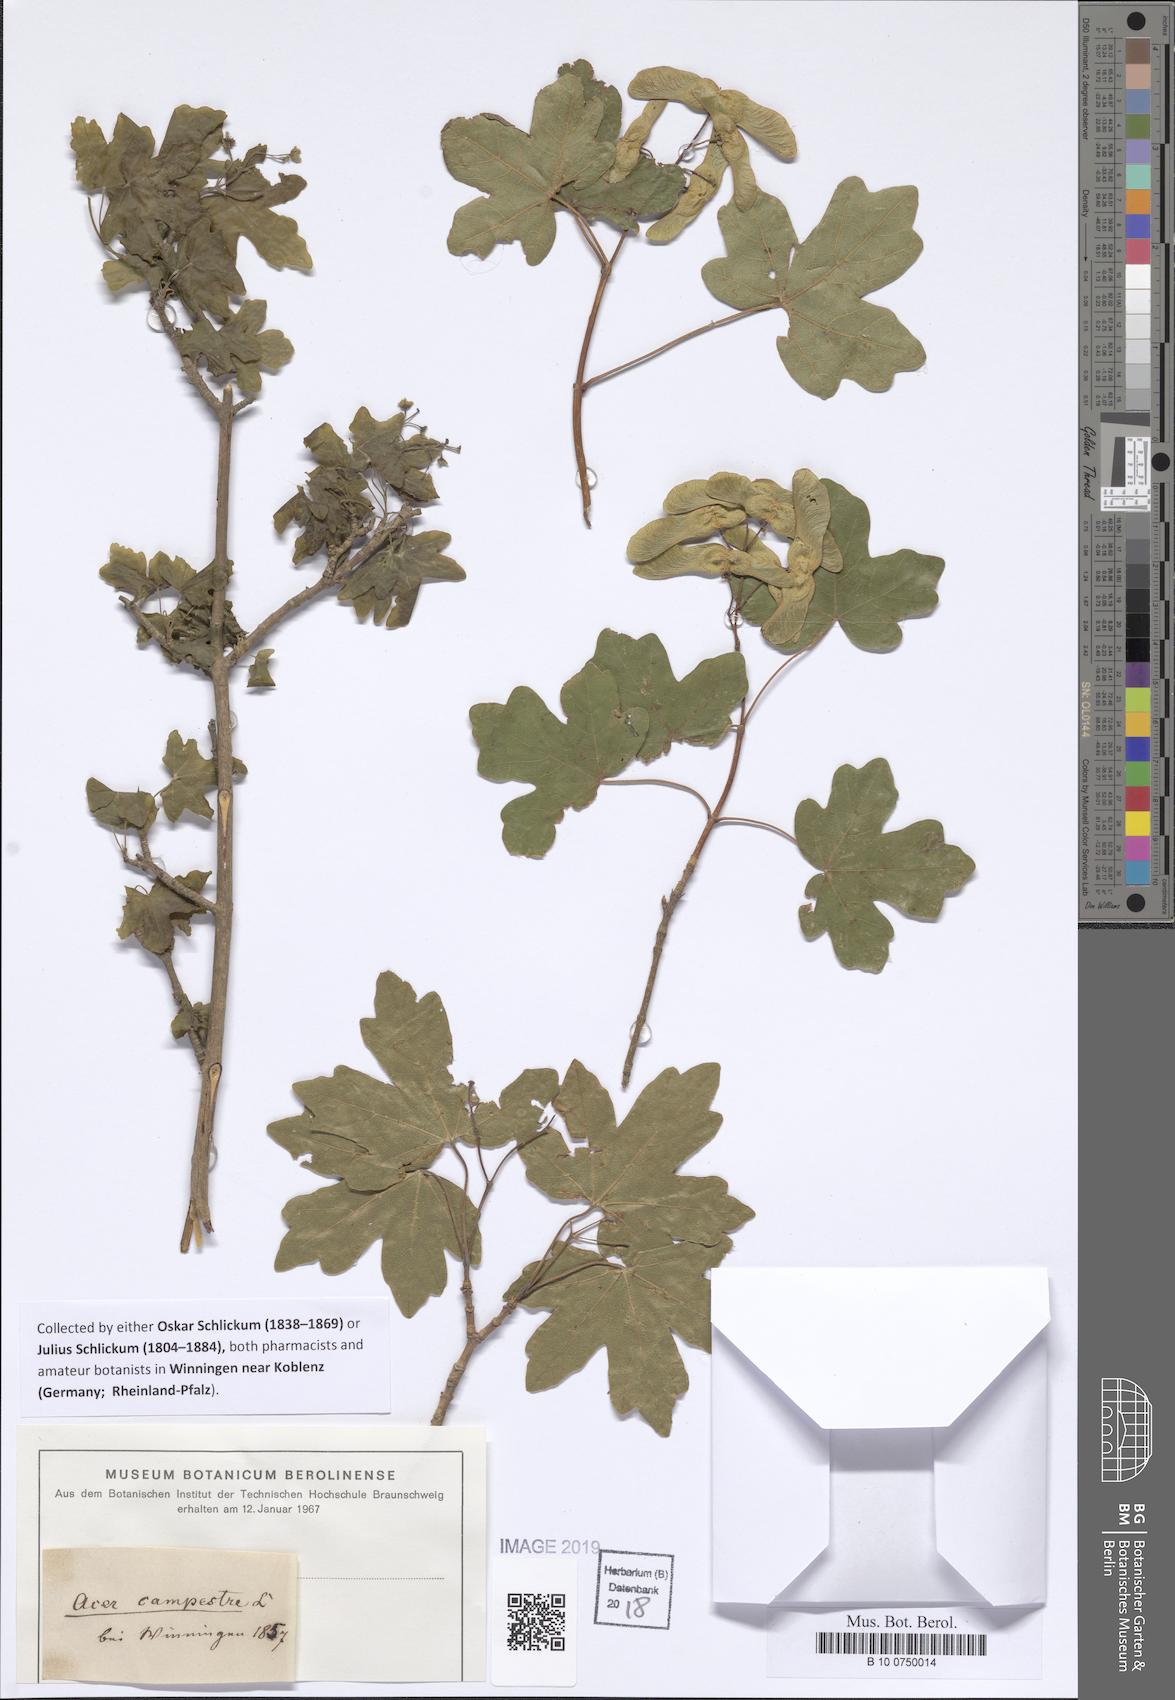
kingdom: Plantae
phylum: Tracheophyta
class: Magnoliopsida
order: Sapindales
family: Sapindaceae
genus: Acer
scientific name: Acer campestre
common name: Field maple
